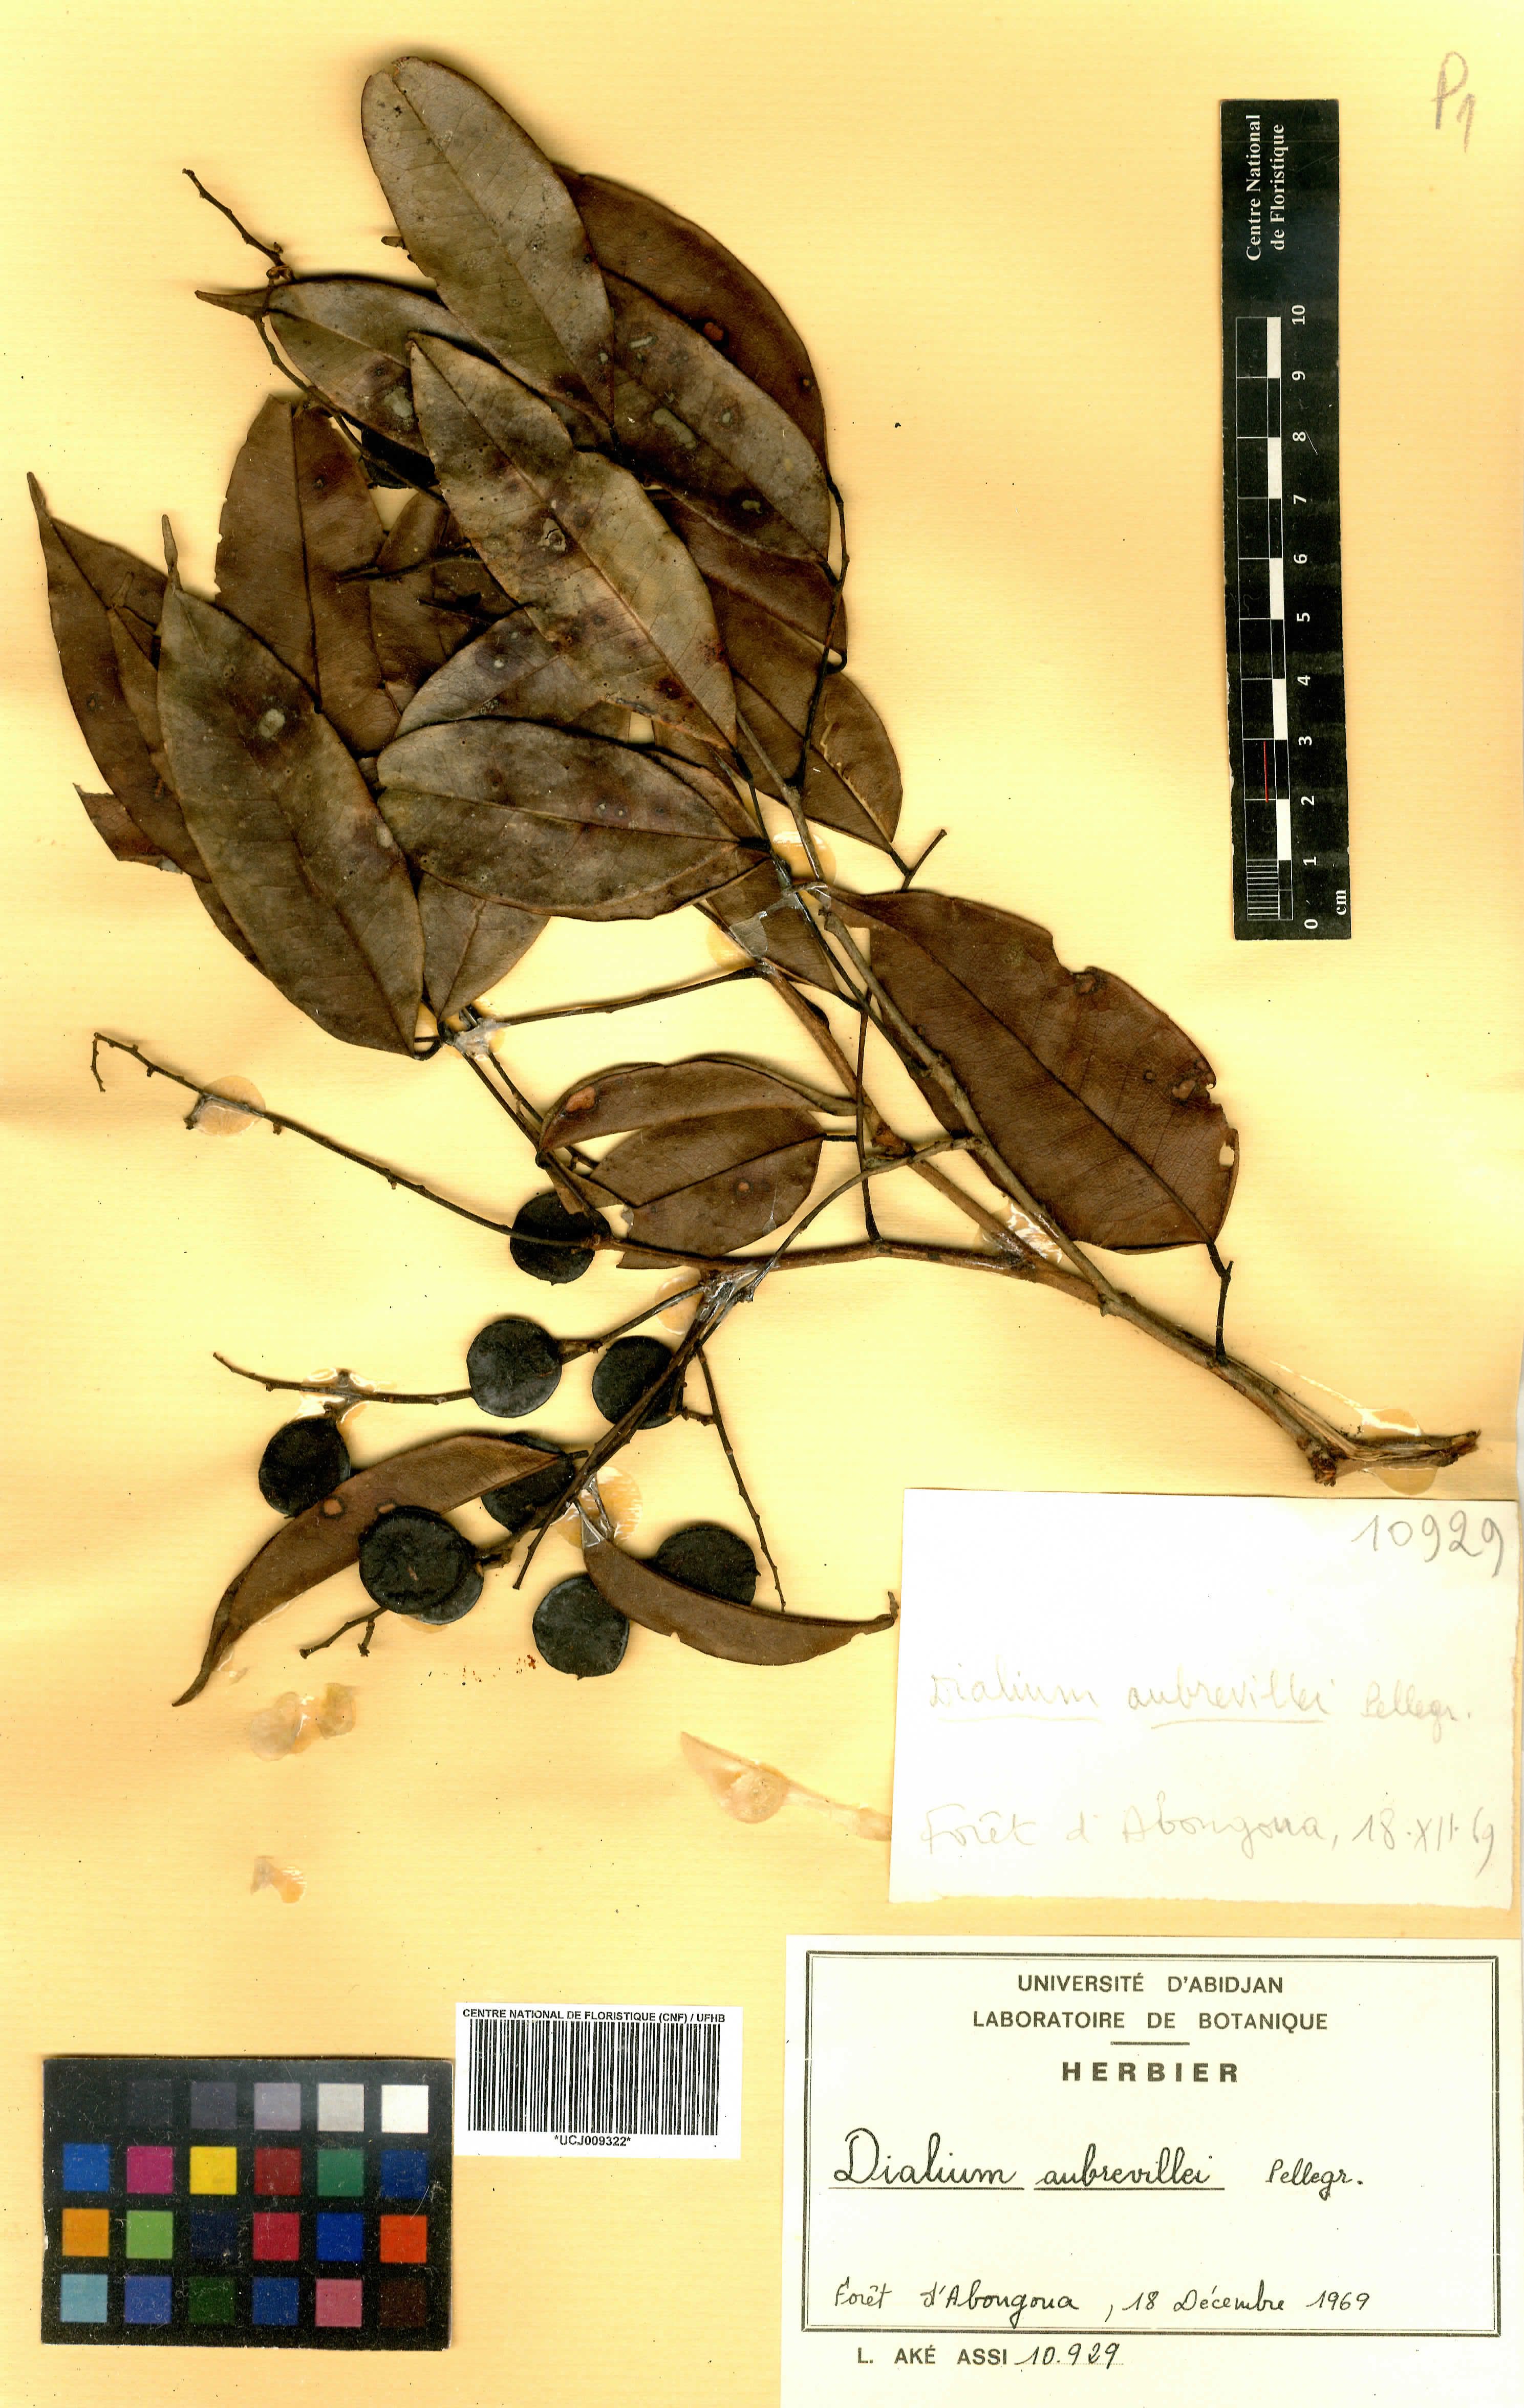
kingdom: Plantae
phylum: Tracheophyta
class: Magnoliopsida
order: Fabales
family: Fabaceae
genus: Dialium
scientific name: Dialium polyanthum
